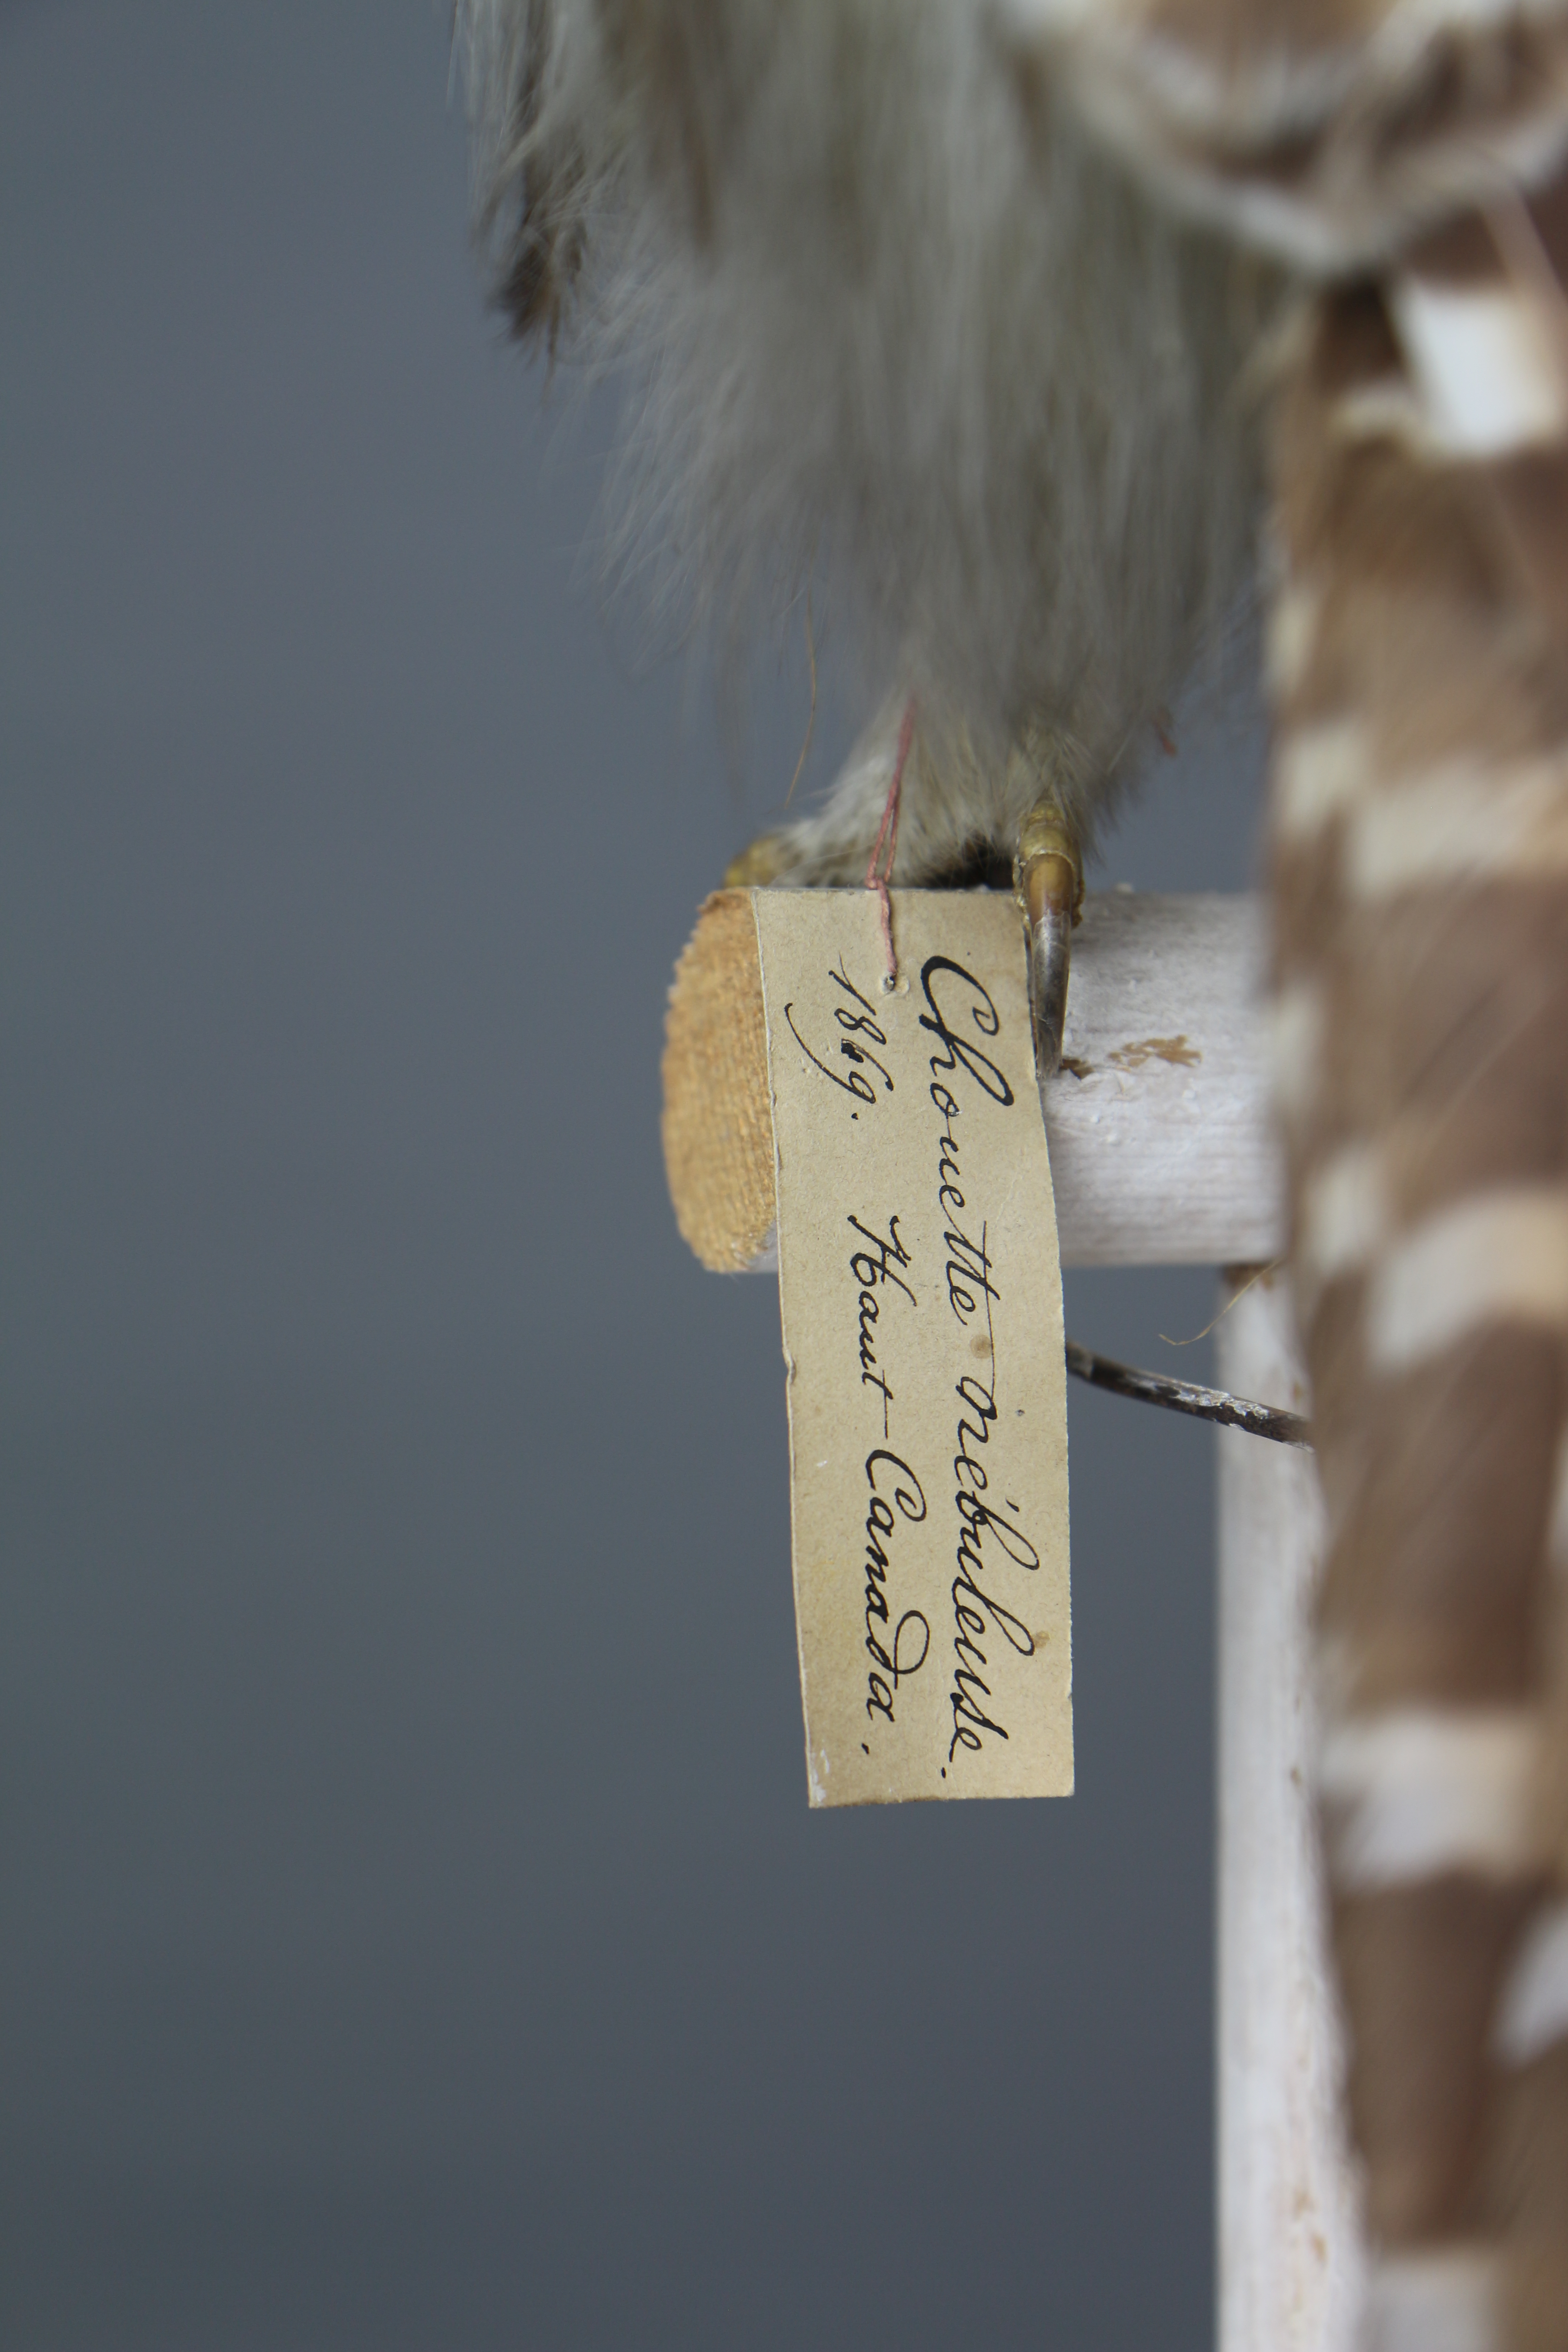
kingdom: Animalia
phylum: Chordata
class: Aves
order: Strigiformes
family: Strigidae
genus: Strix
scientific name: Strix nebulosa
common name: Great grey owl
